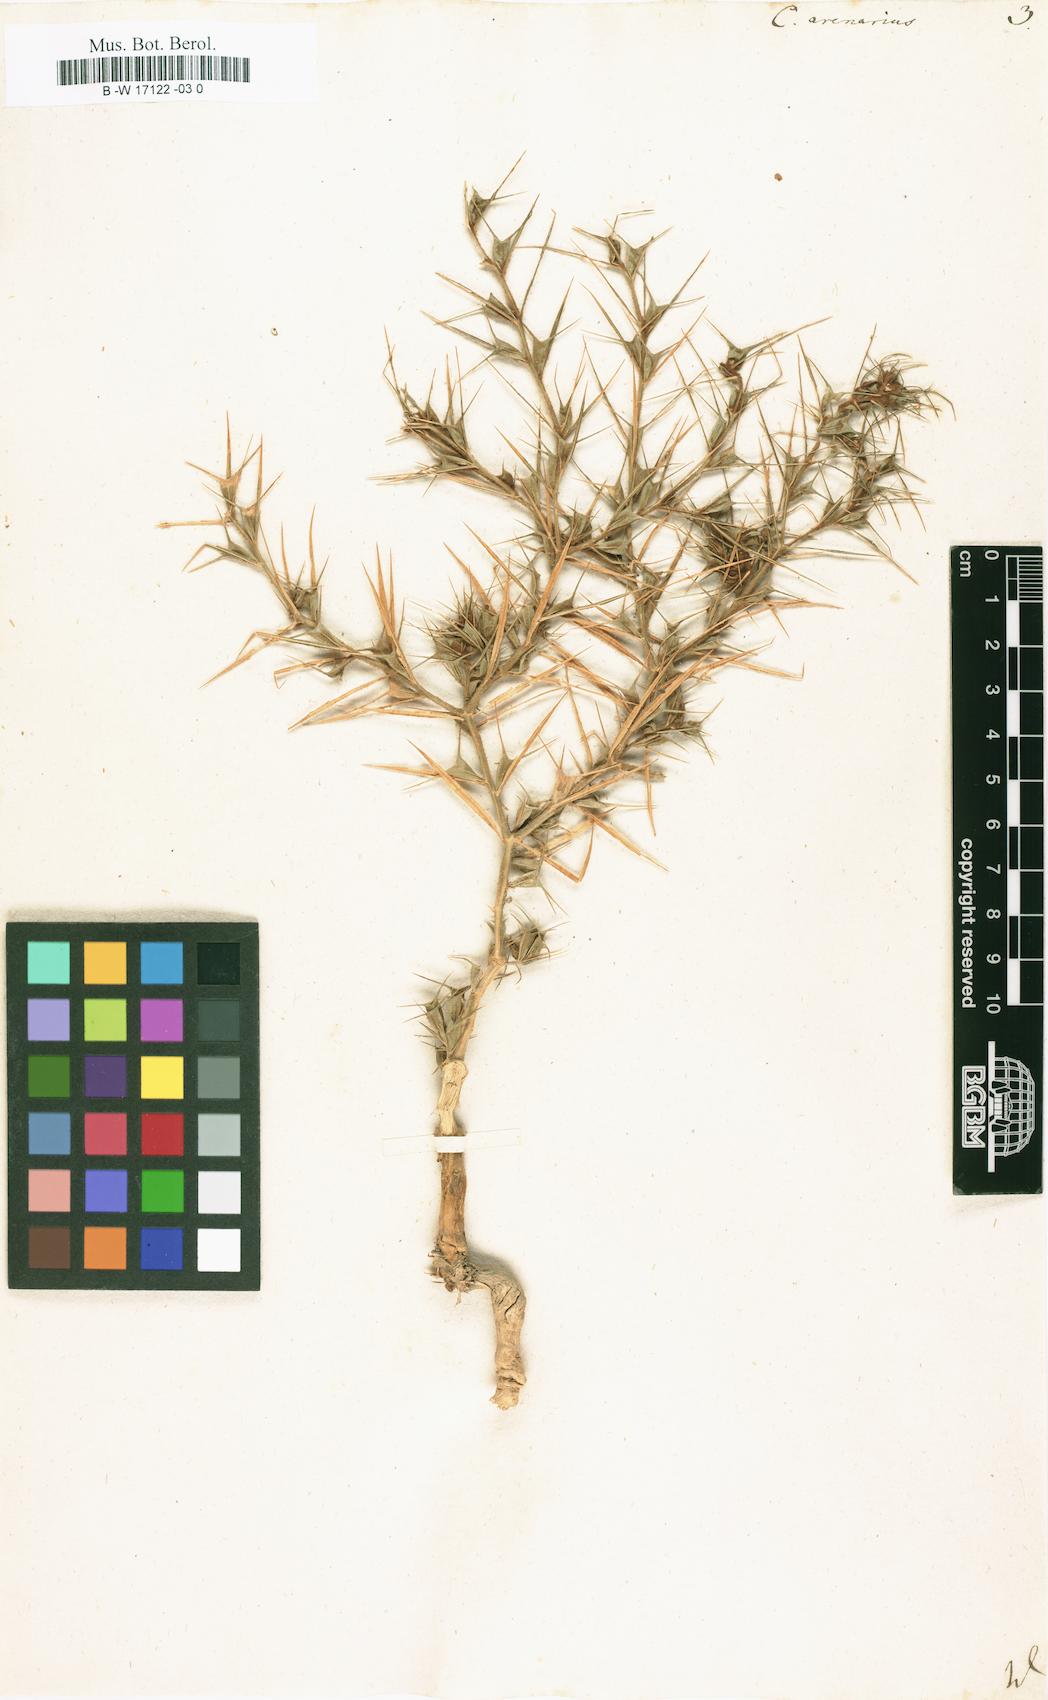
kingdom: Plantae
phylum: Tracheophyta
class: Magnoliopsida
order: Caryophyllales
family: Amaranthaceae
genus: Ceratocarpus
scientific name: Ceratocarpus arenarius
